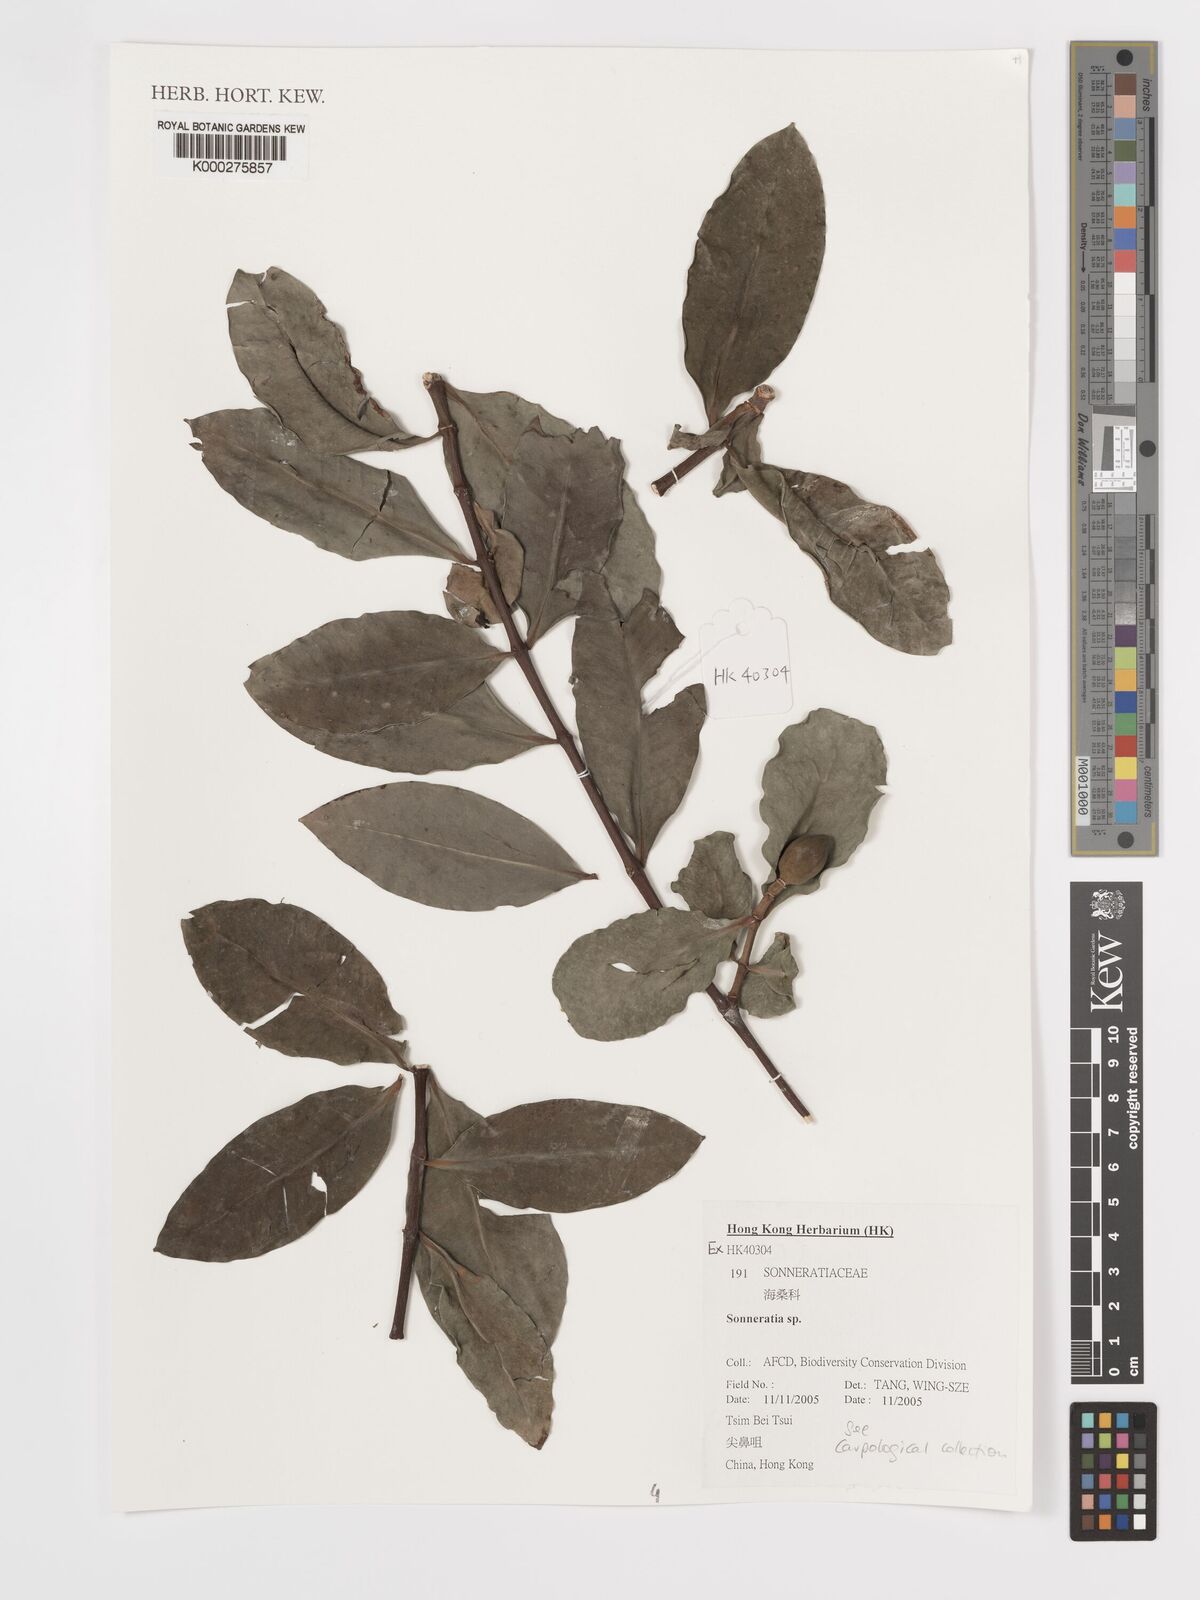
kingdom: Plantae
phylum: Tracheophyta
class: Magnoliopsida
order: Myrtales
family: Lythraceae
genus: Sonneratia
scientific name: Sonneratia
